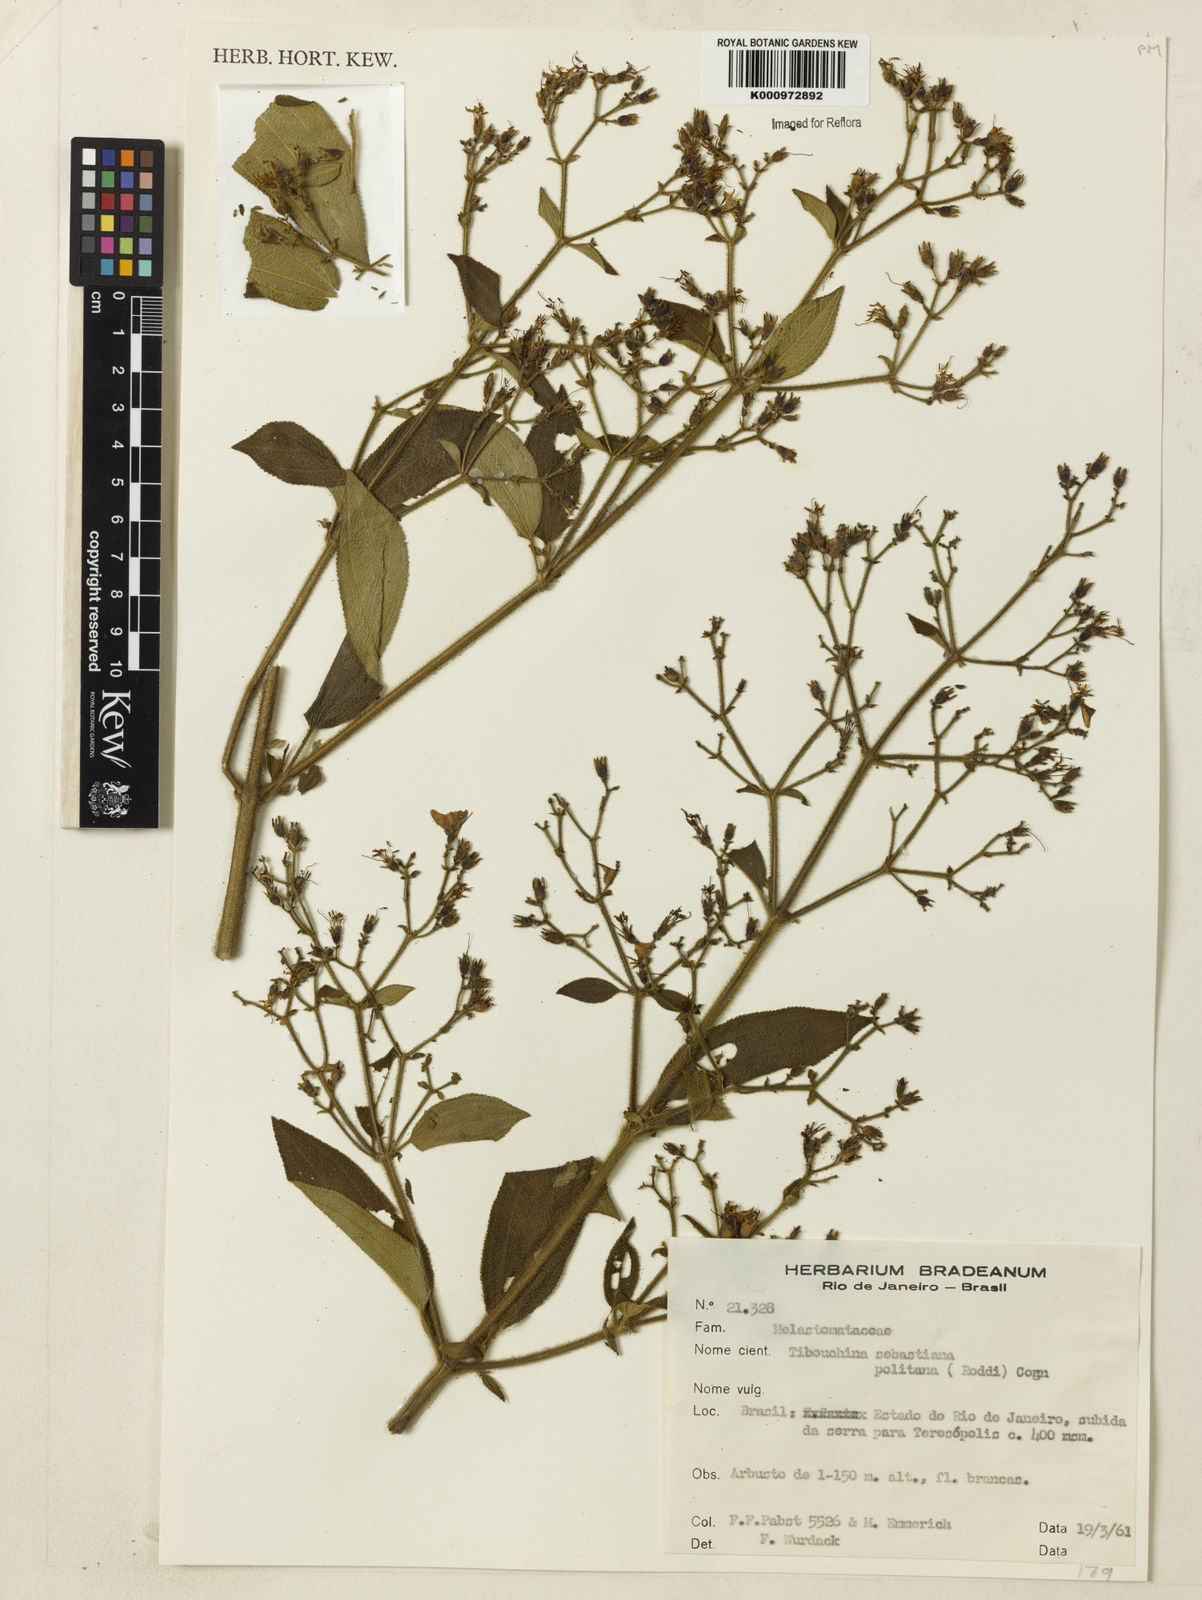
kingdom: Plantae
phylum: Tracheophyta
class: Magnoliopsida
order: Myrtales
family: Melastomataceae
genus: Chaetogastra
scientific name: Chaetogastra sebastianopolitana
